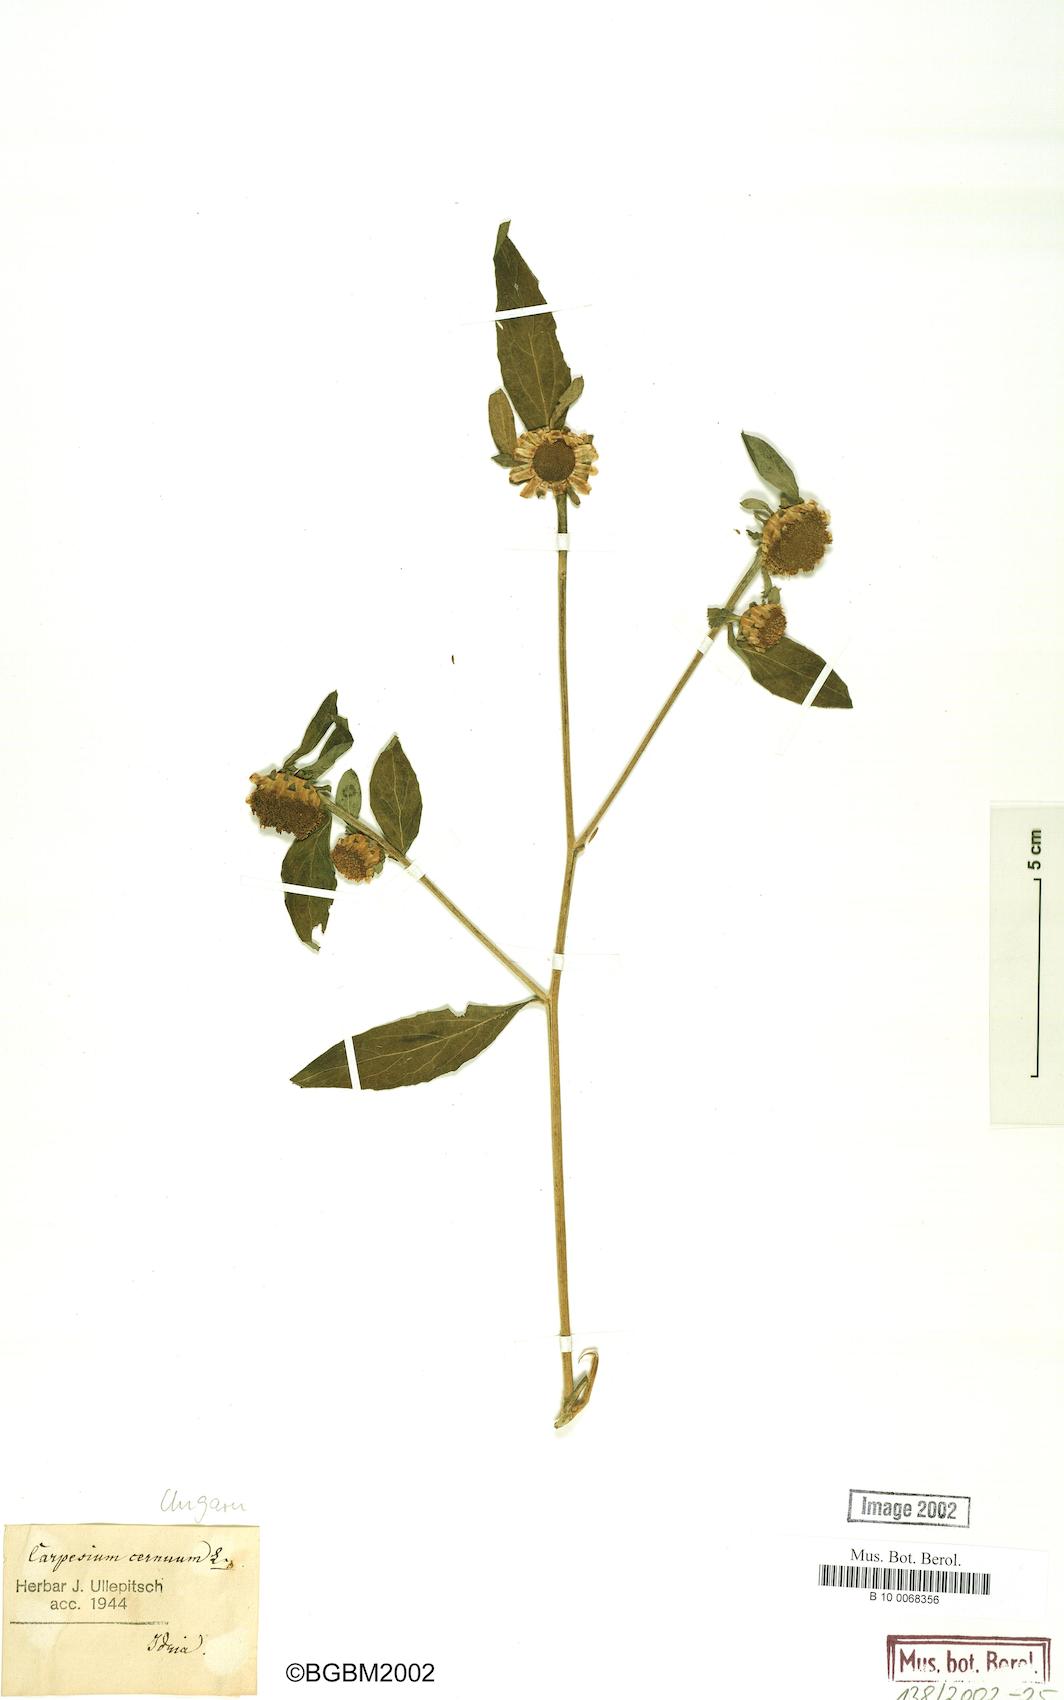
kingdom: Plantae
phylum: Tracheophyta
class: Magnoliopsida
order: Asterales
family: Asteraceae
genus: Carpesium
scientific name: Carpesium cernuum
